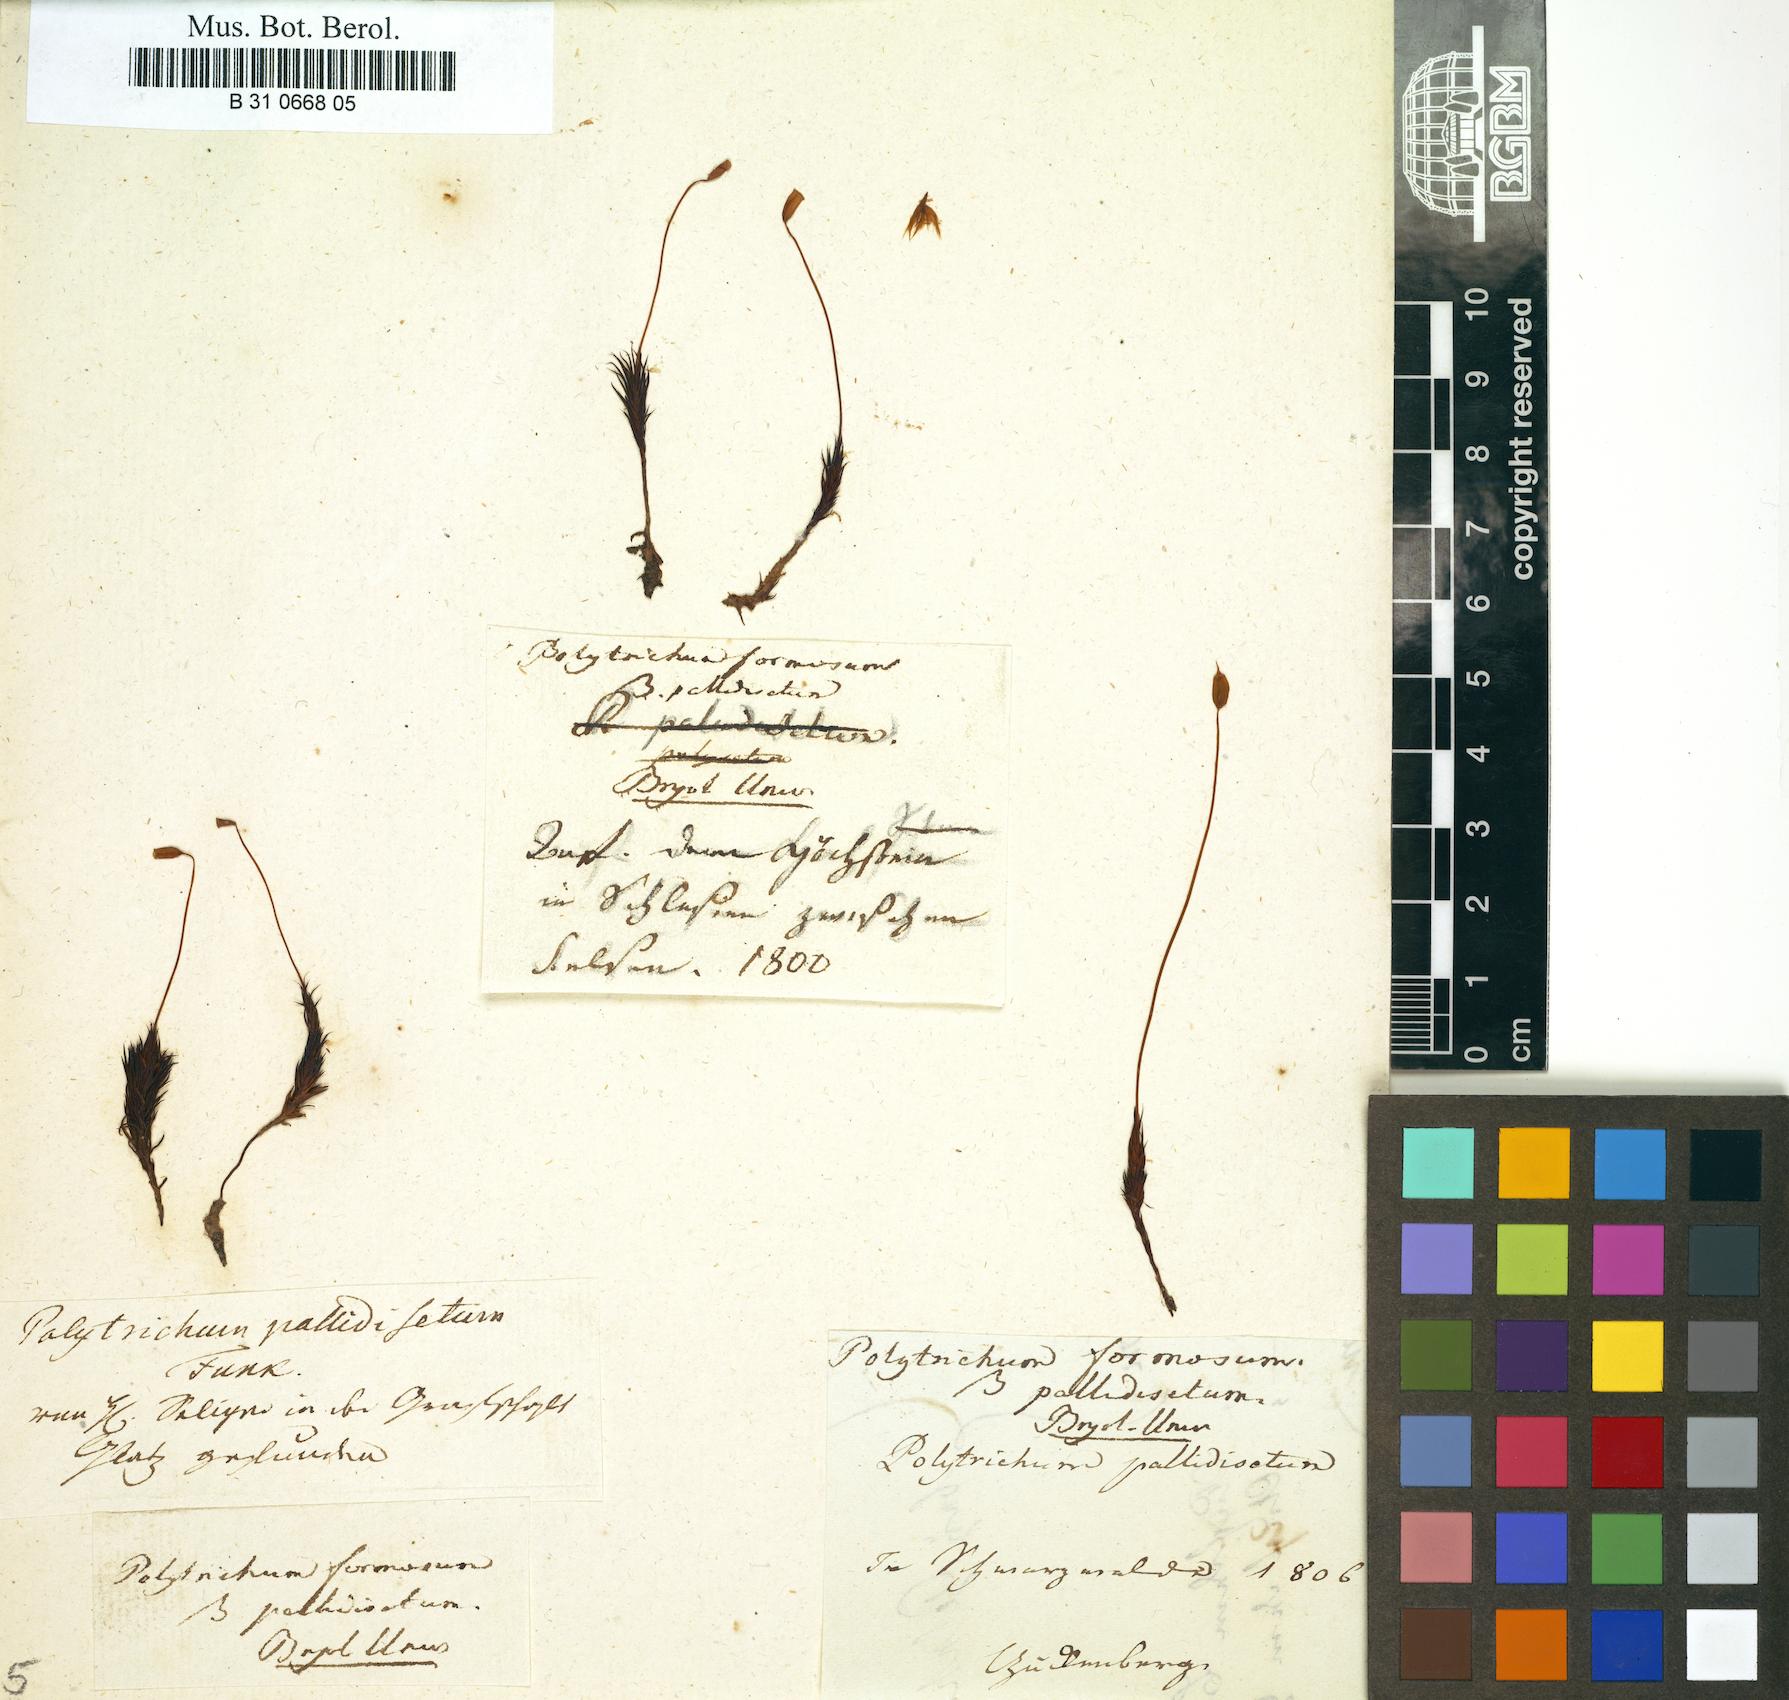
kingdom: Plantae
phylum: Bryophyta
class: Polytrichopsida
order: Polytrichales
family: Polytrichaceae
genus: Polytrichum
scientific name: Polytrichum formosum
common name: Bank haircap moss
